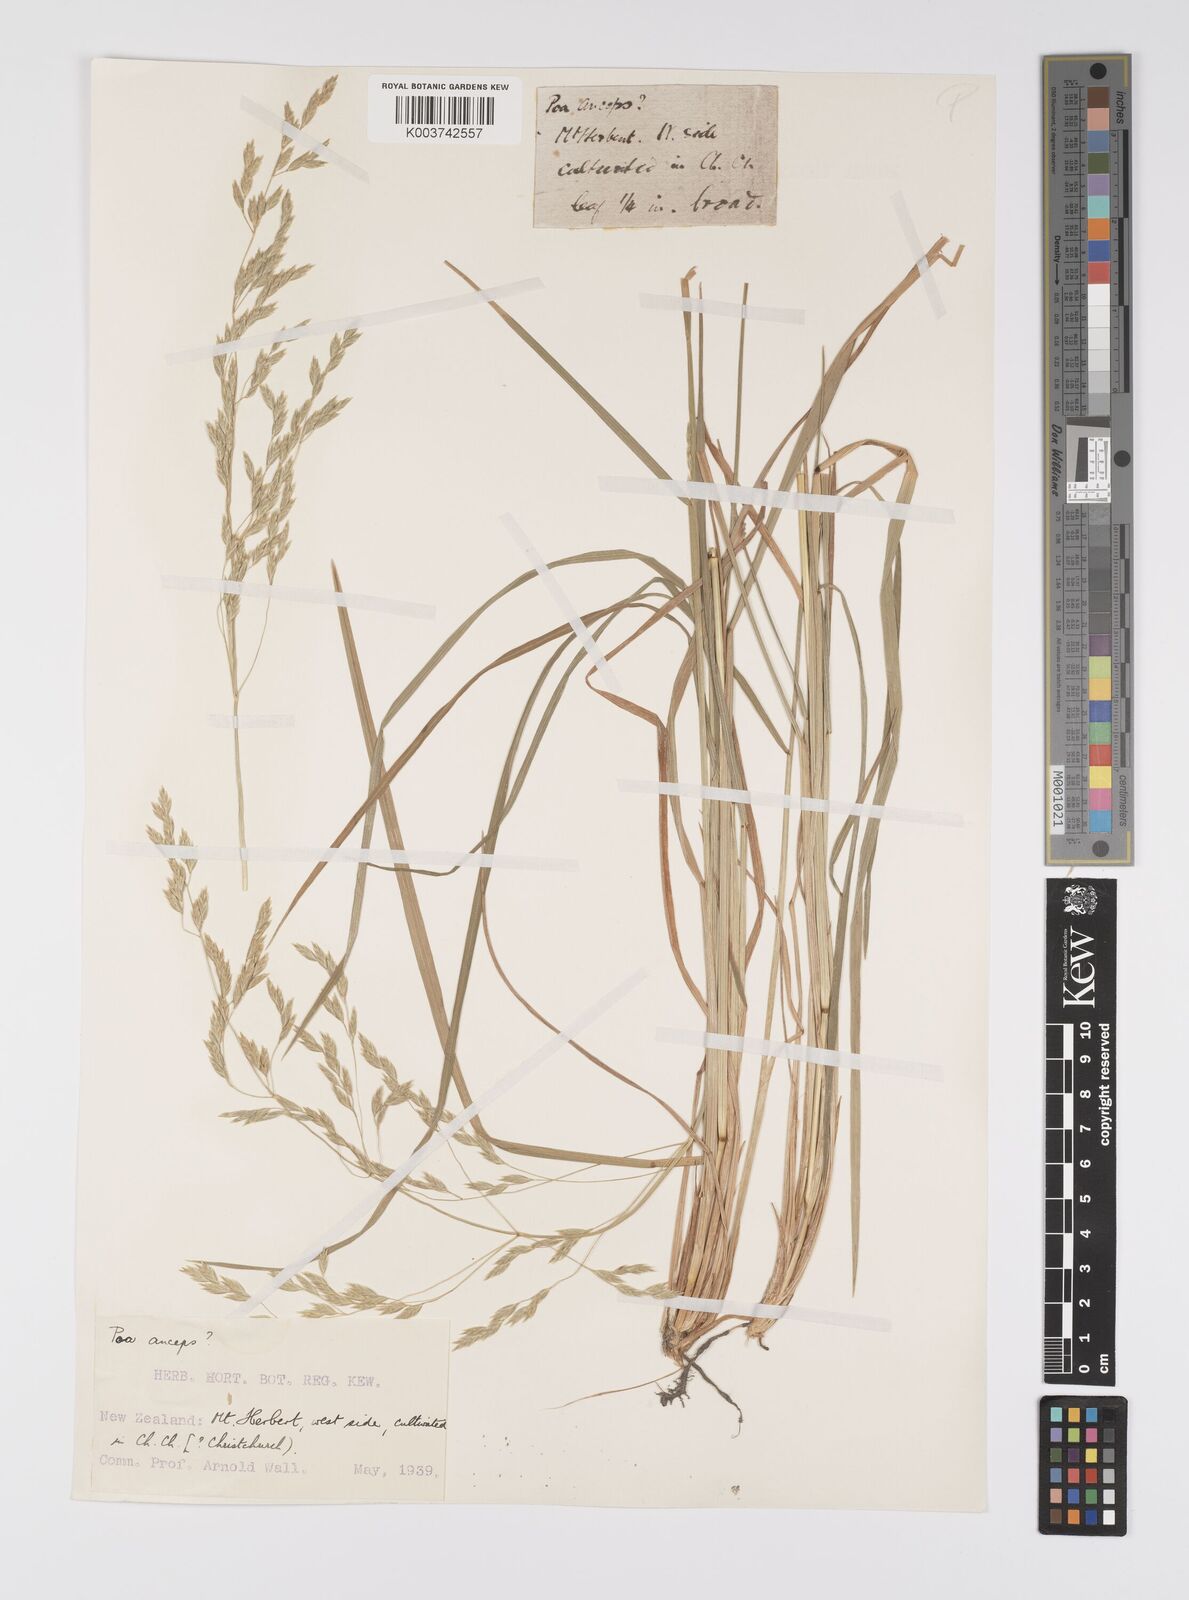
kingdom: Plantae
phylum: Tracheophyta
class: Liliopsida
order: Poales
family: Poaceae
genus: Poa
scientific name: Poa anceps
